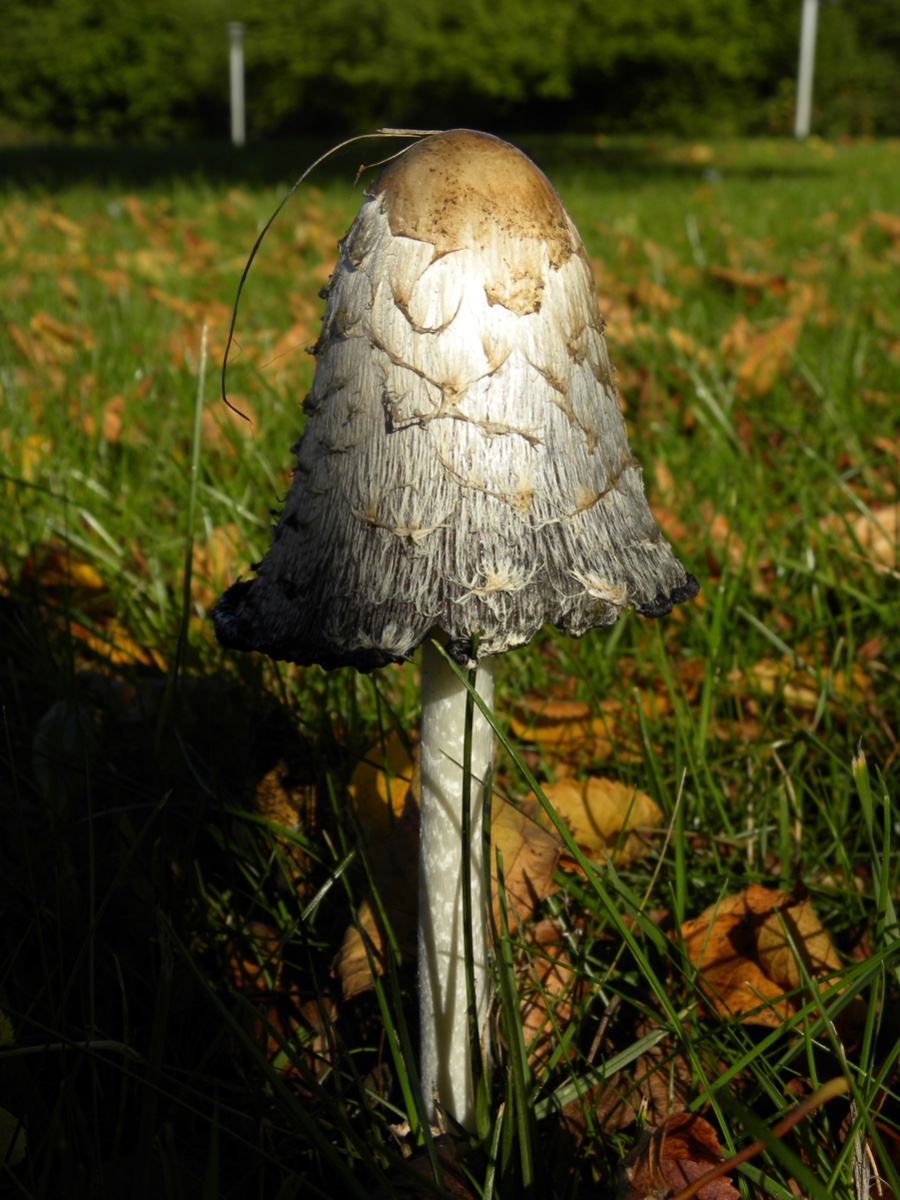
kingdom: Fungi
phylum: Basidiomycota
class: Agaricomycetes
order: Agaricales
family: Agaricaceae
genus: Coprinus
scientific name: Coprinus comatus
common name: stor parykhat
